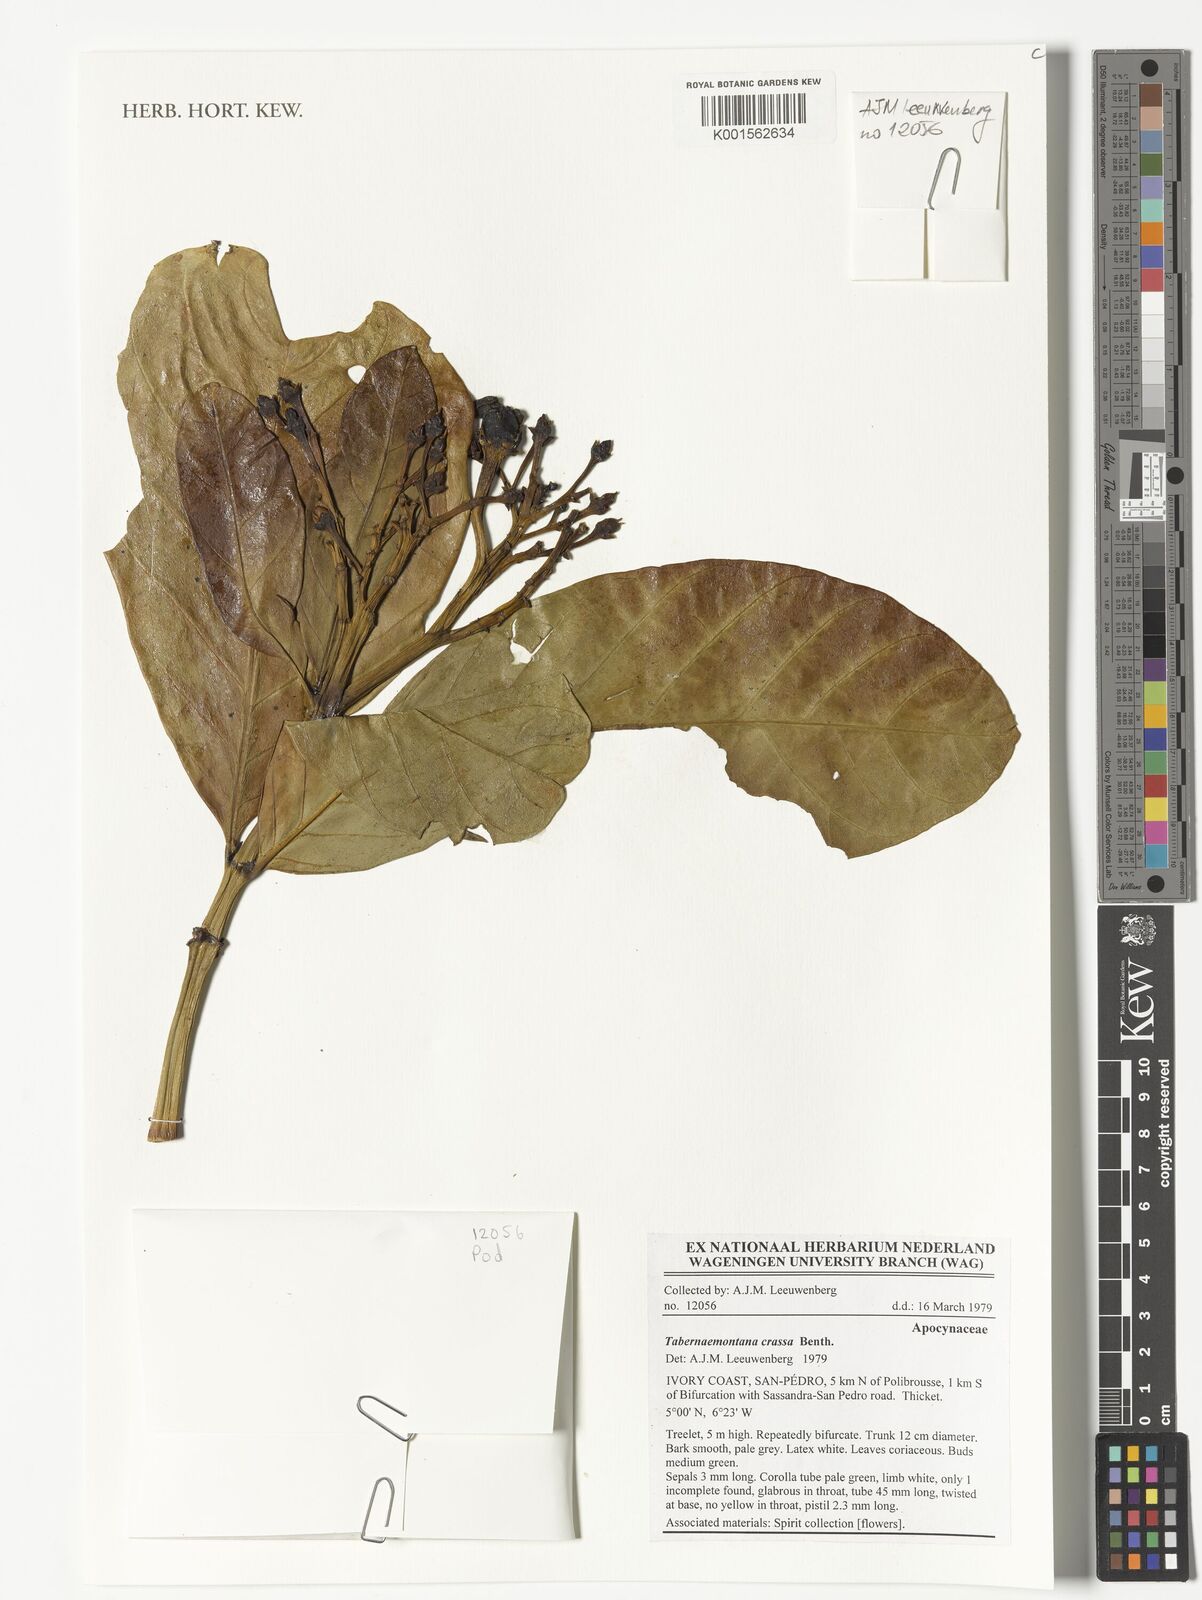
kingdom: Plantae
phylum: Tracheophyta
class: Magnoliopsida
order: Gentianales
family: Apocynaceae
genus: Tabernaemontana
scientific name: Tabernaemontana crassa
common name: Adam's-apple-flower
